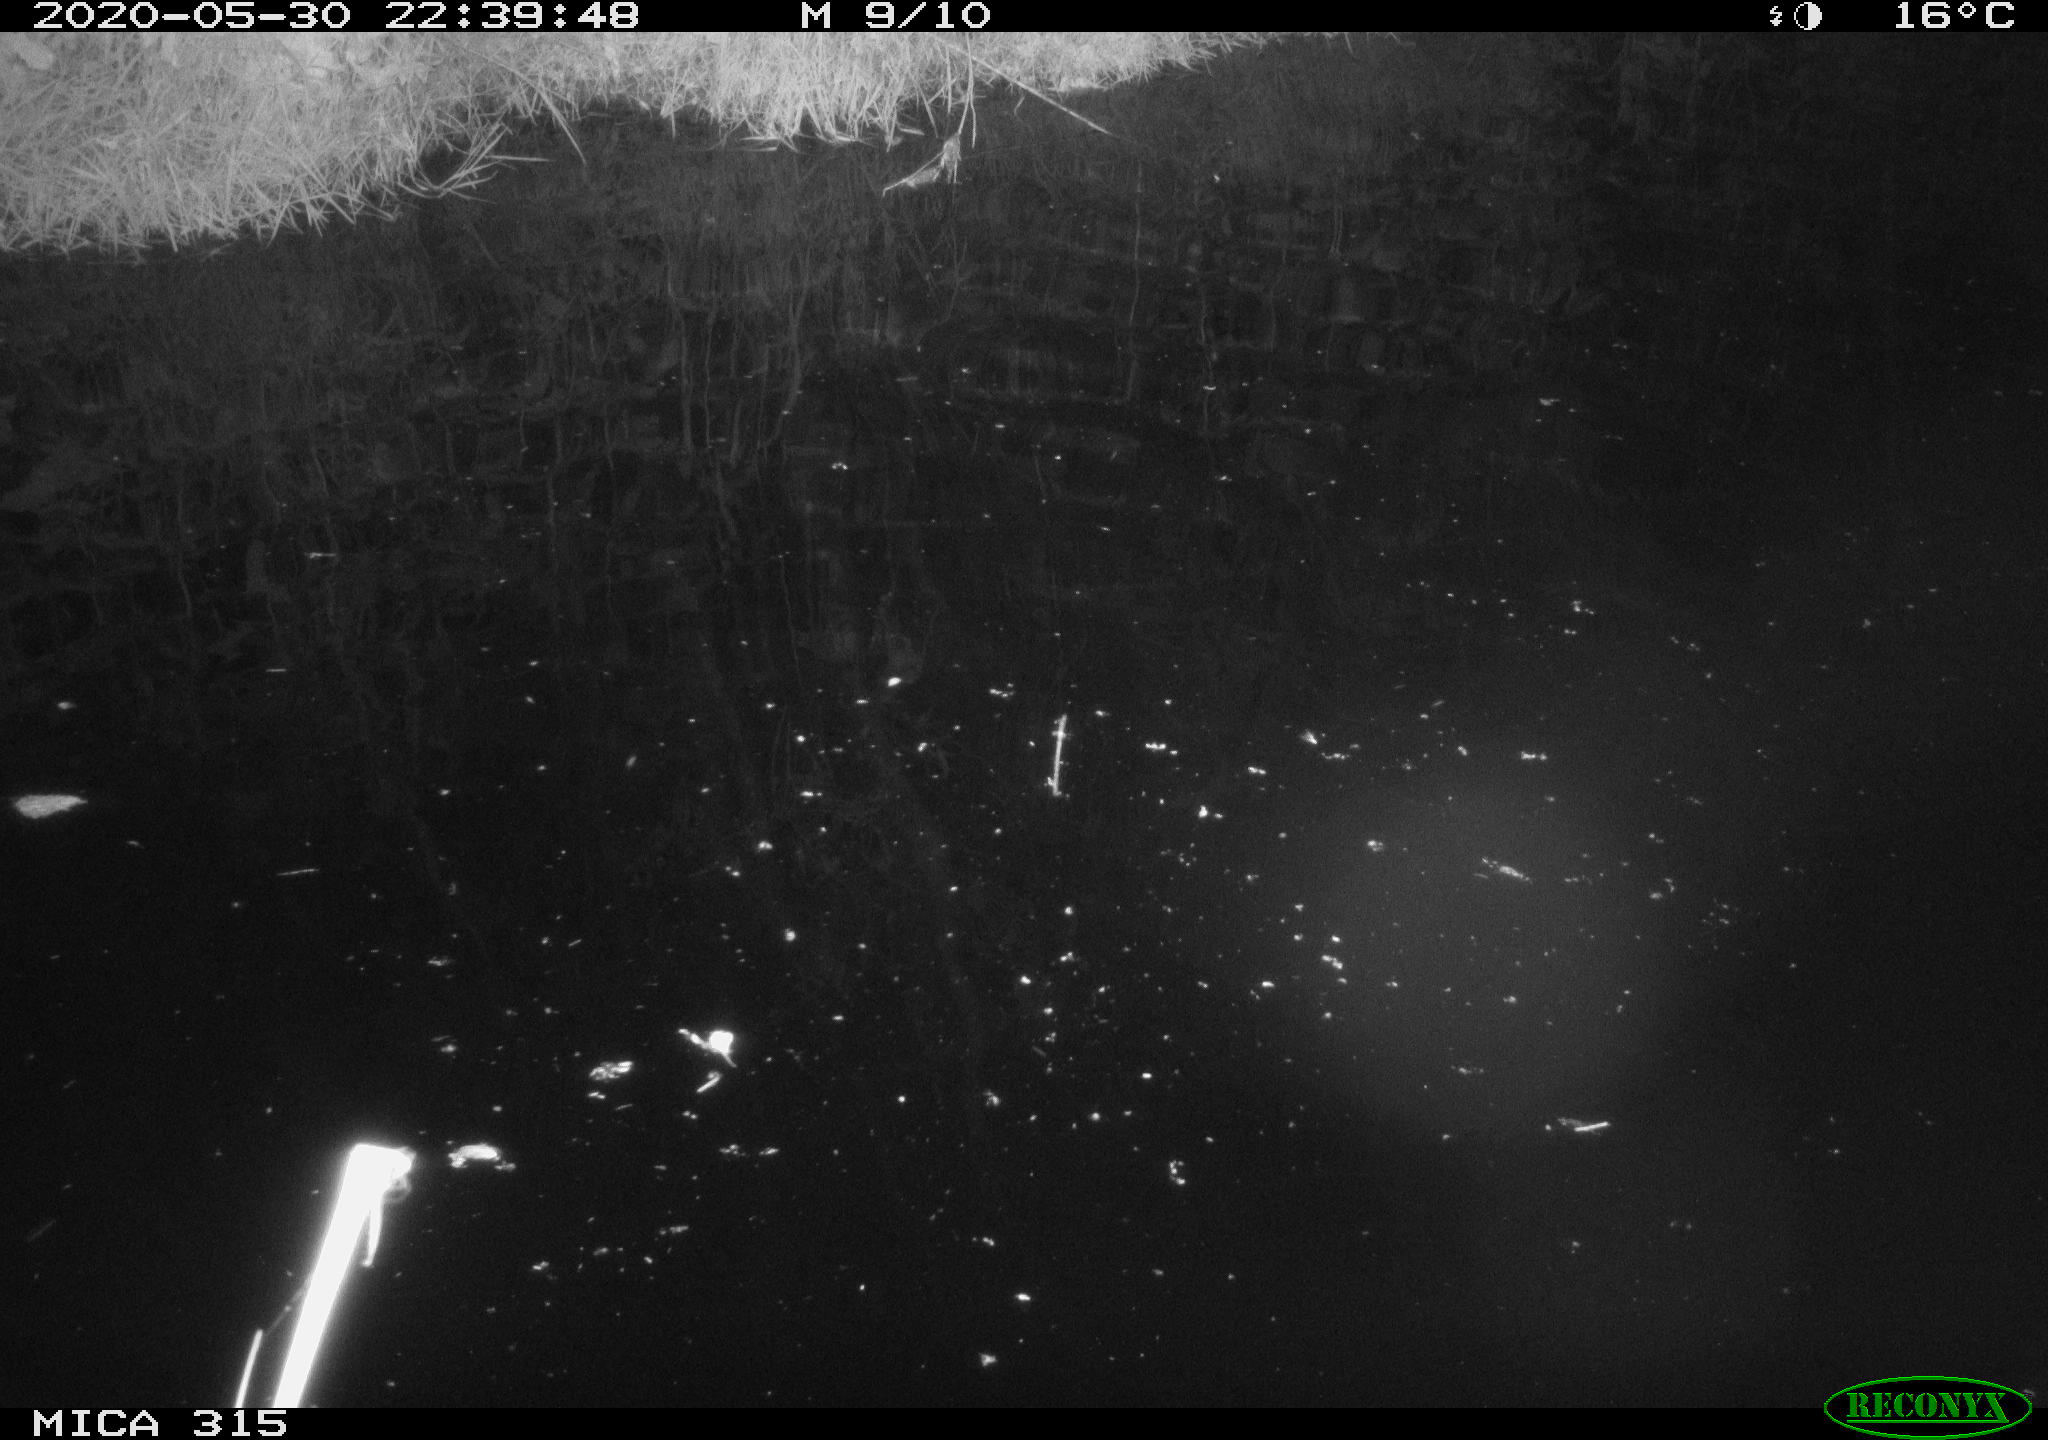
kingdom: Animalia
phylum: Chordata
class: Aves
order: Anseriformes
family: Anatidae
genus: Anas
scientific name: Anas platyrhynchos
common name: Mallard
